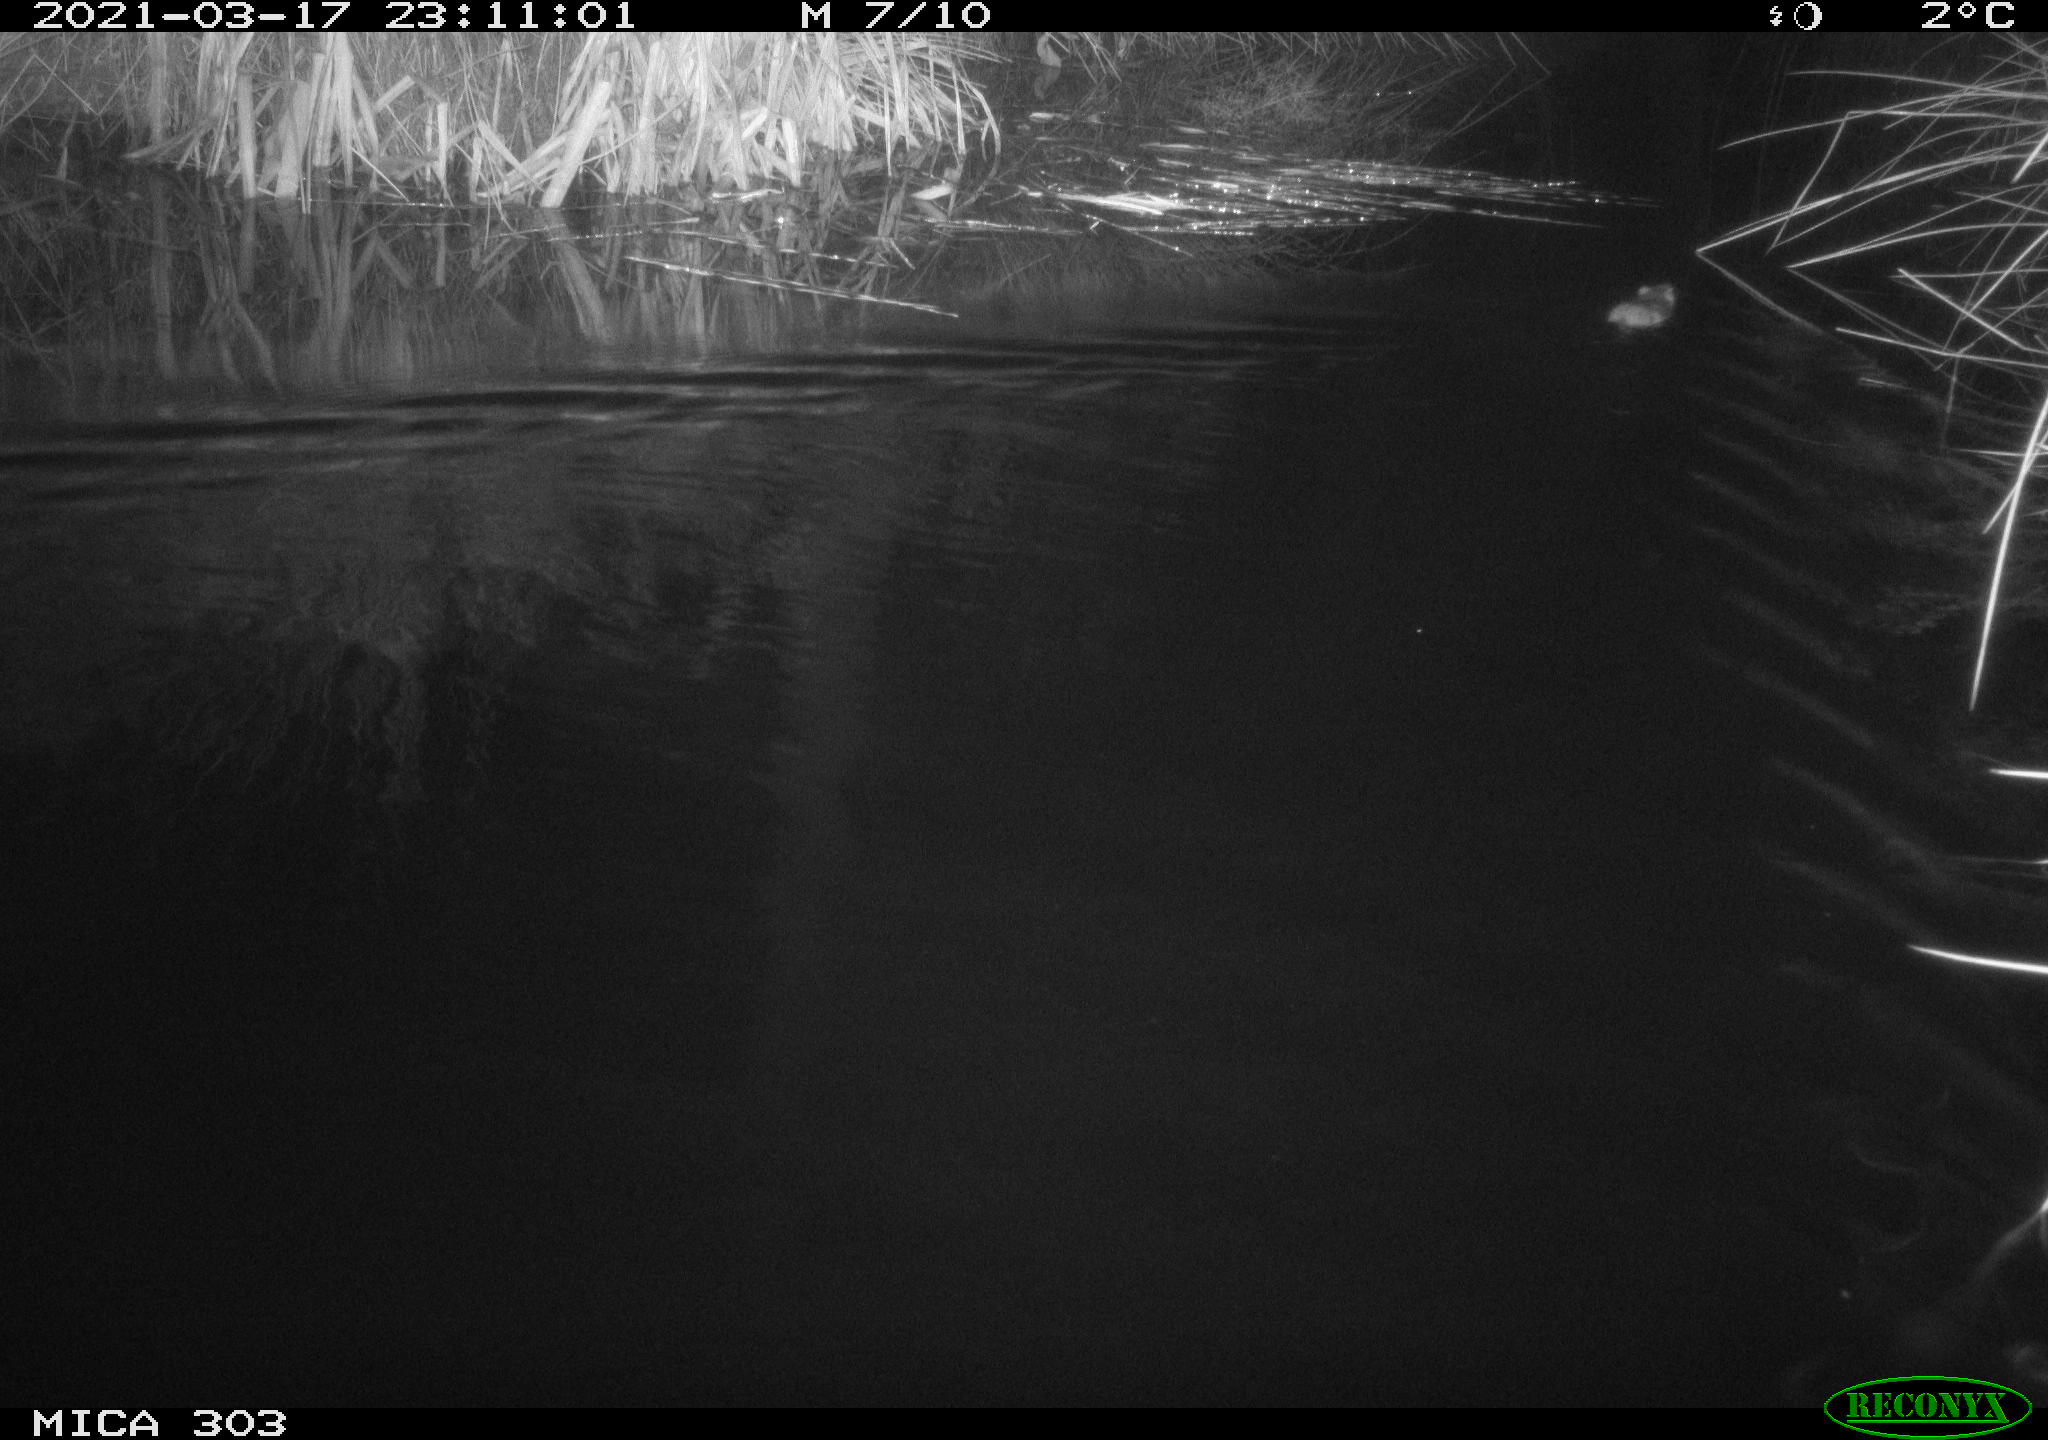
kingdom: Animalia
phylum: Chordata
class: Mammalia
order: Rodentia
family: Muridae
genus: Rattus
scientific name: Rattus norvegicus
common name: Brown rat
